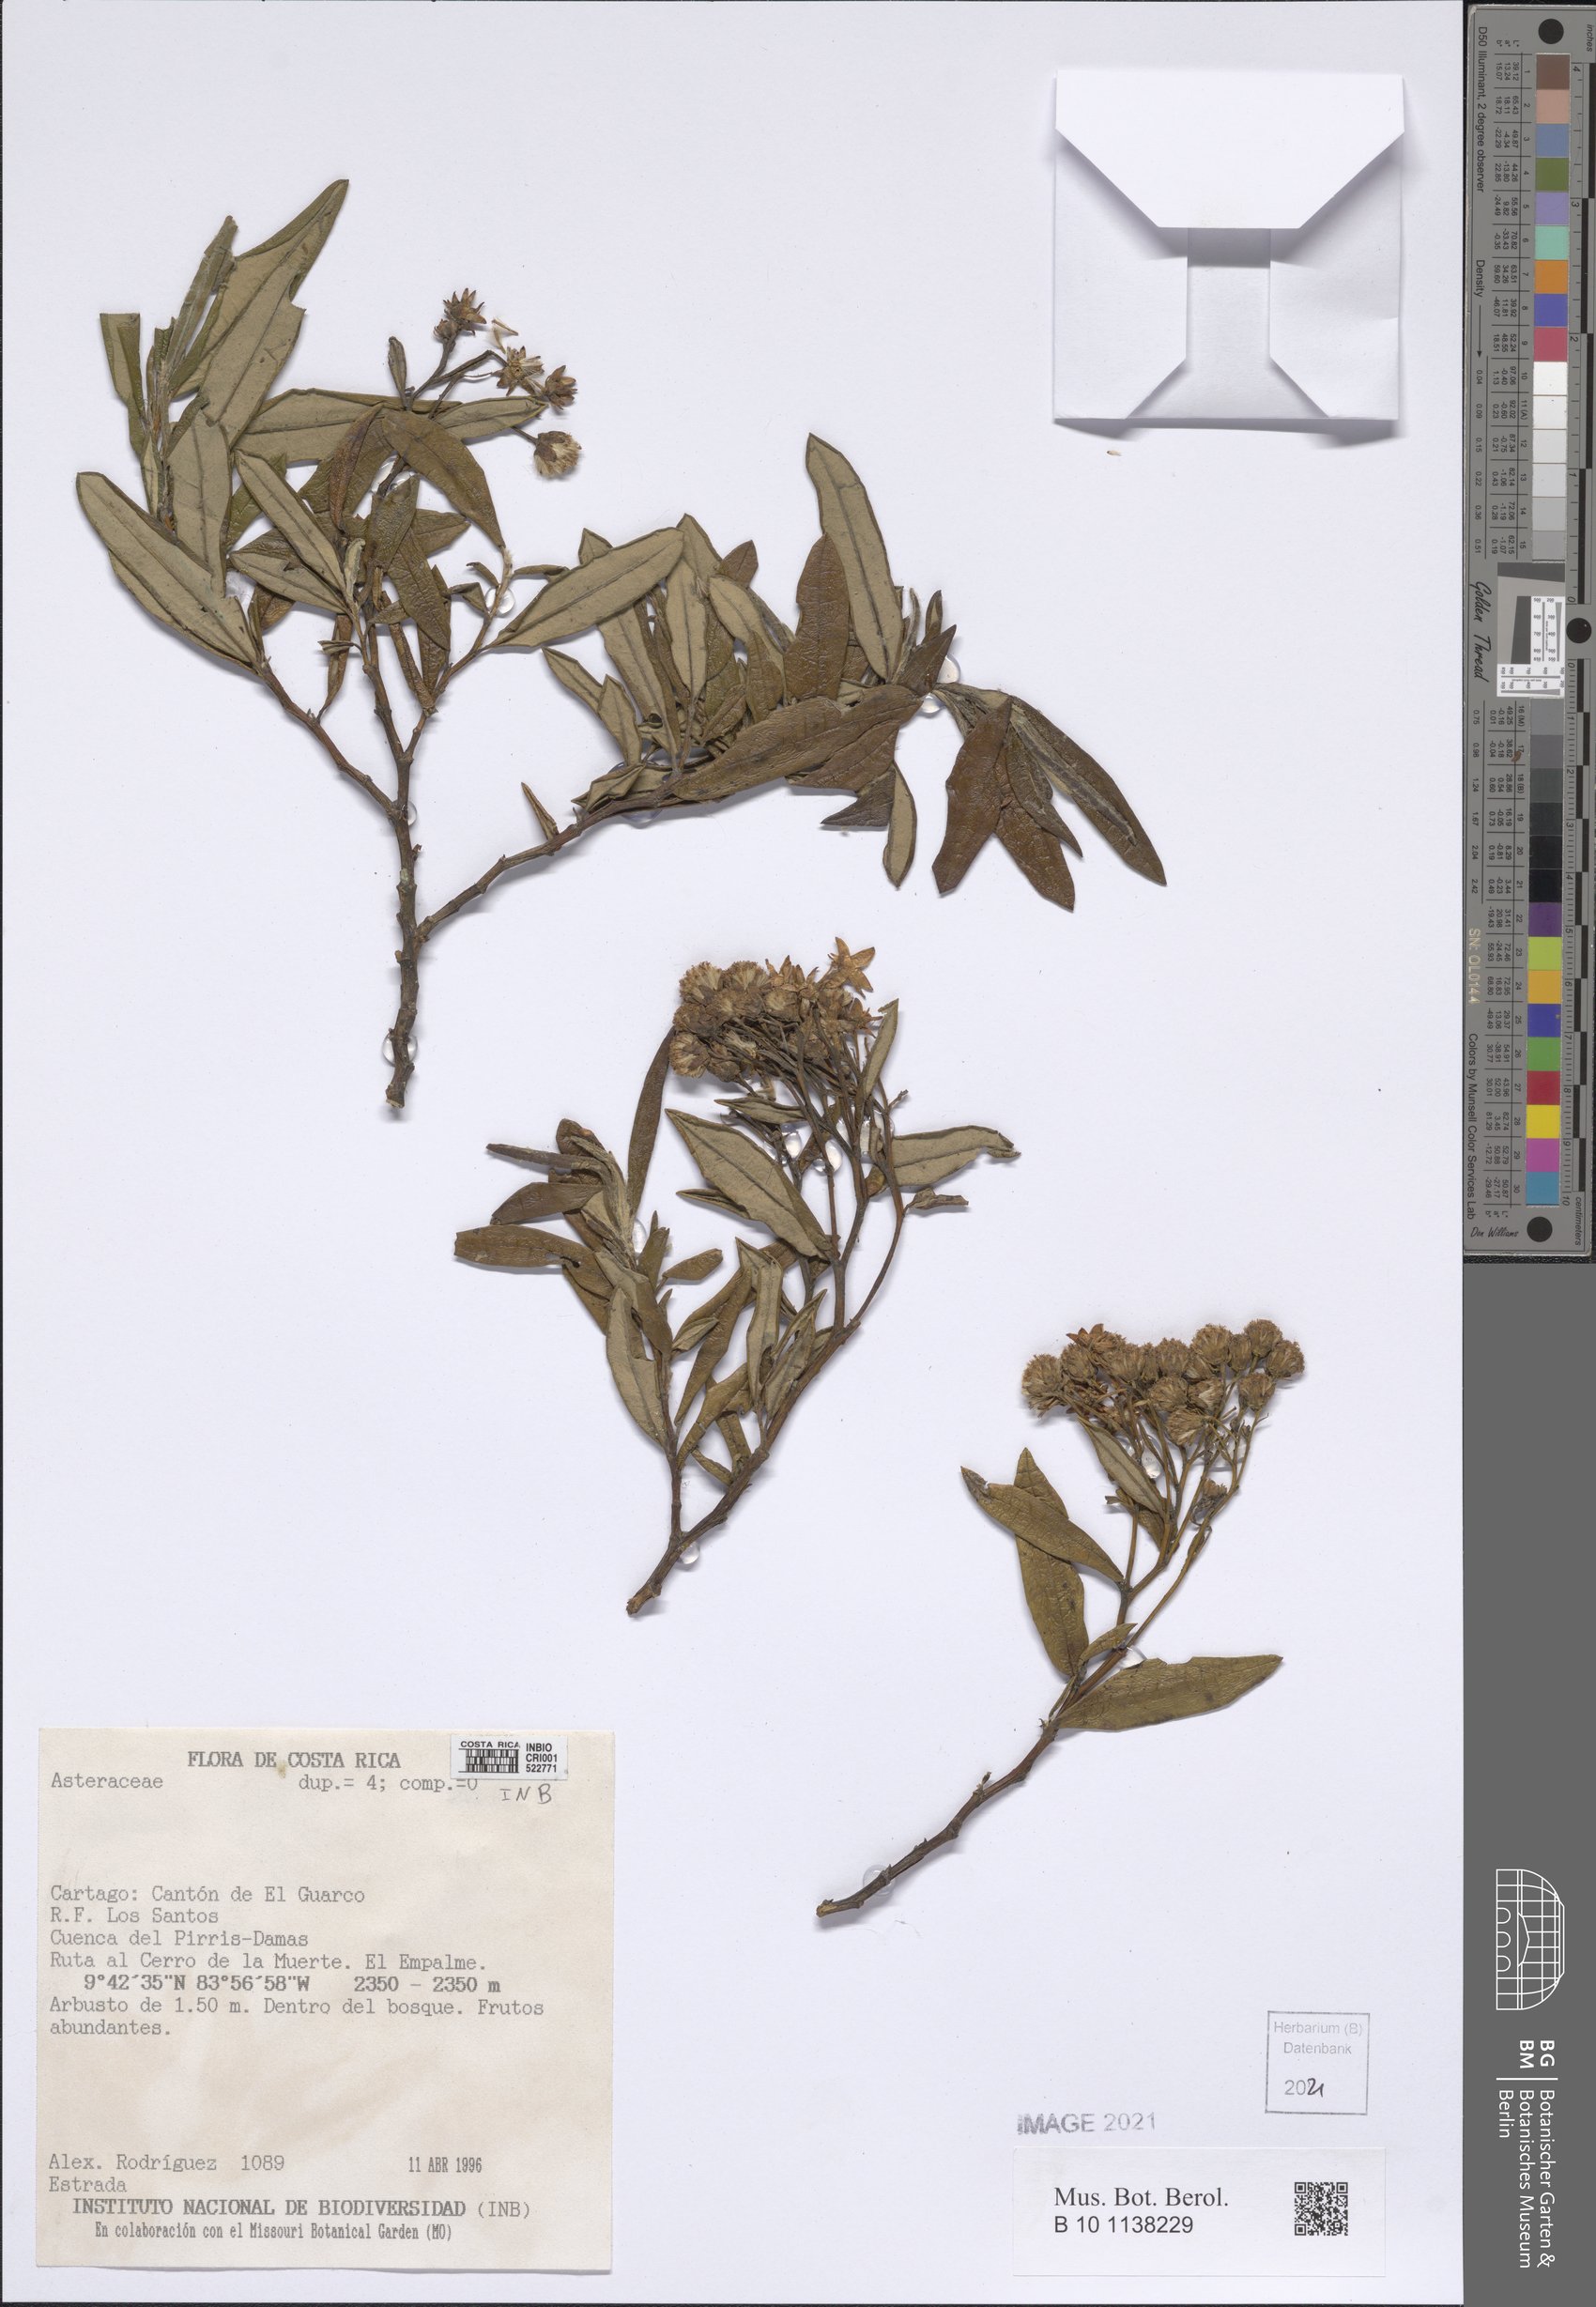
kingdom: Plantae
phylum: Tracheophyta
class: Magnoliopsida
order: Asterales
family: Asteraceae
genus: Monticalia
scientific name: Monticalia andicola
